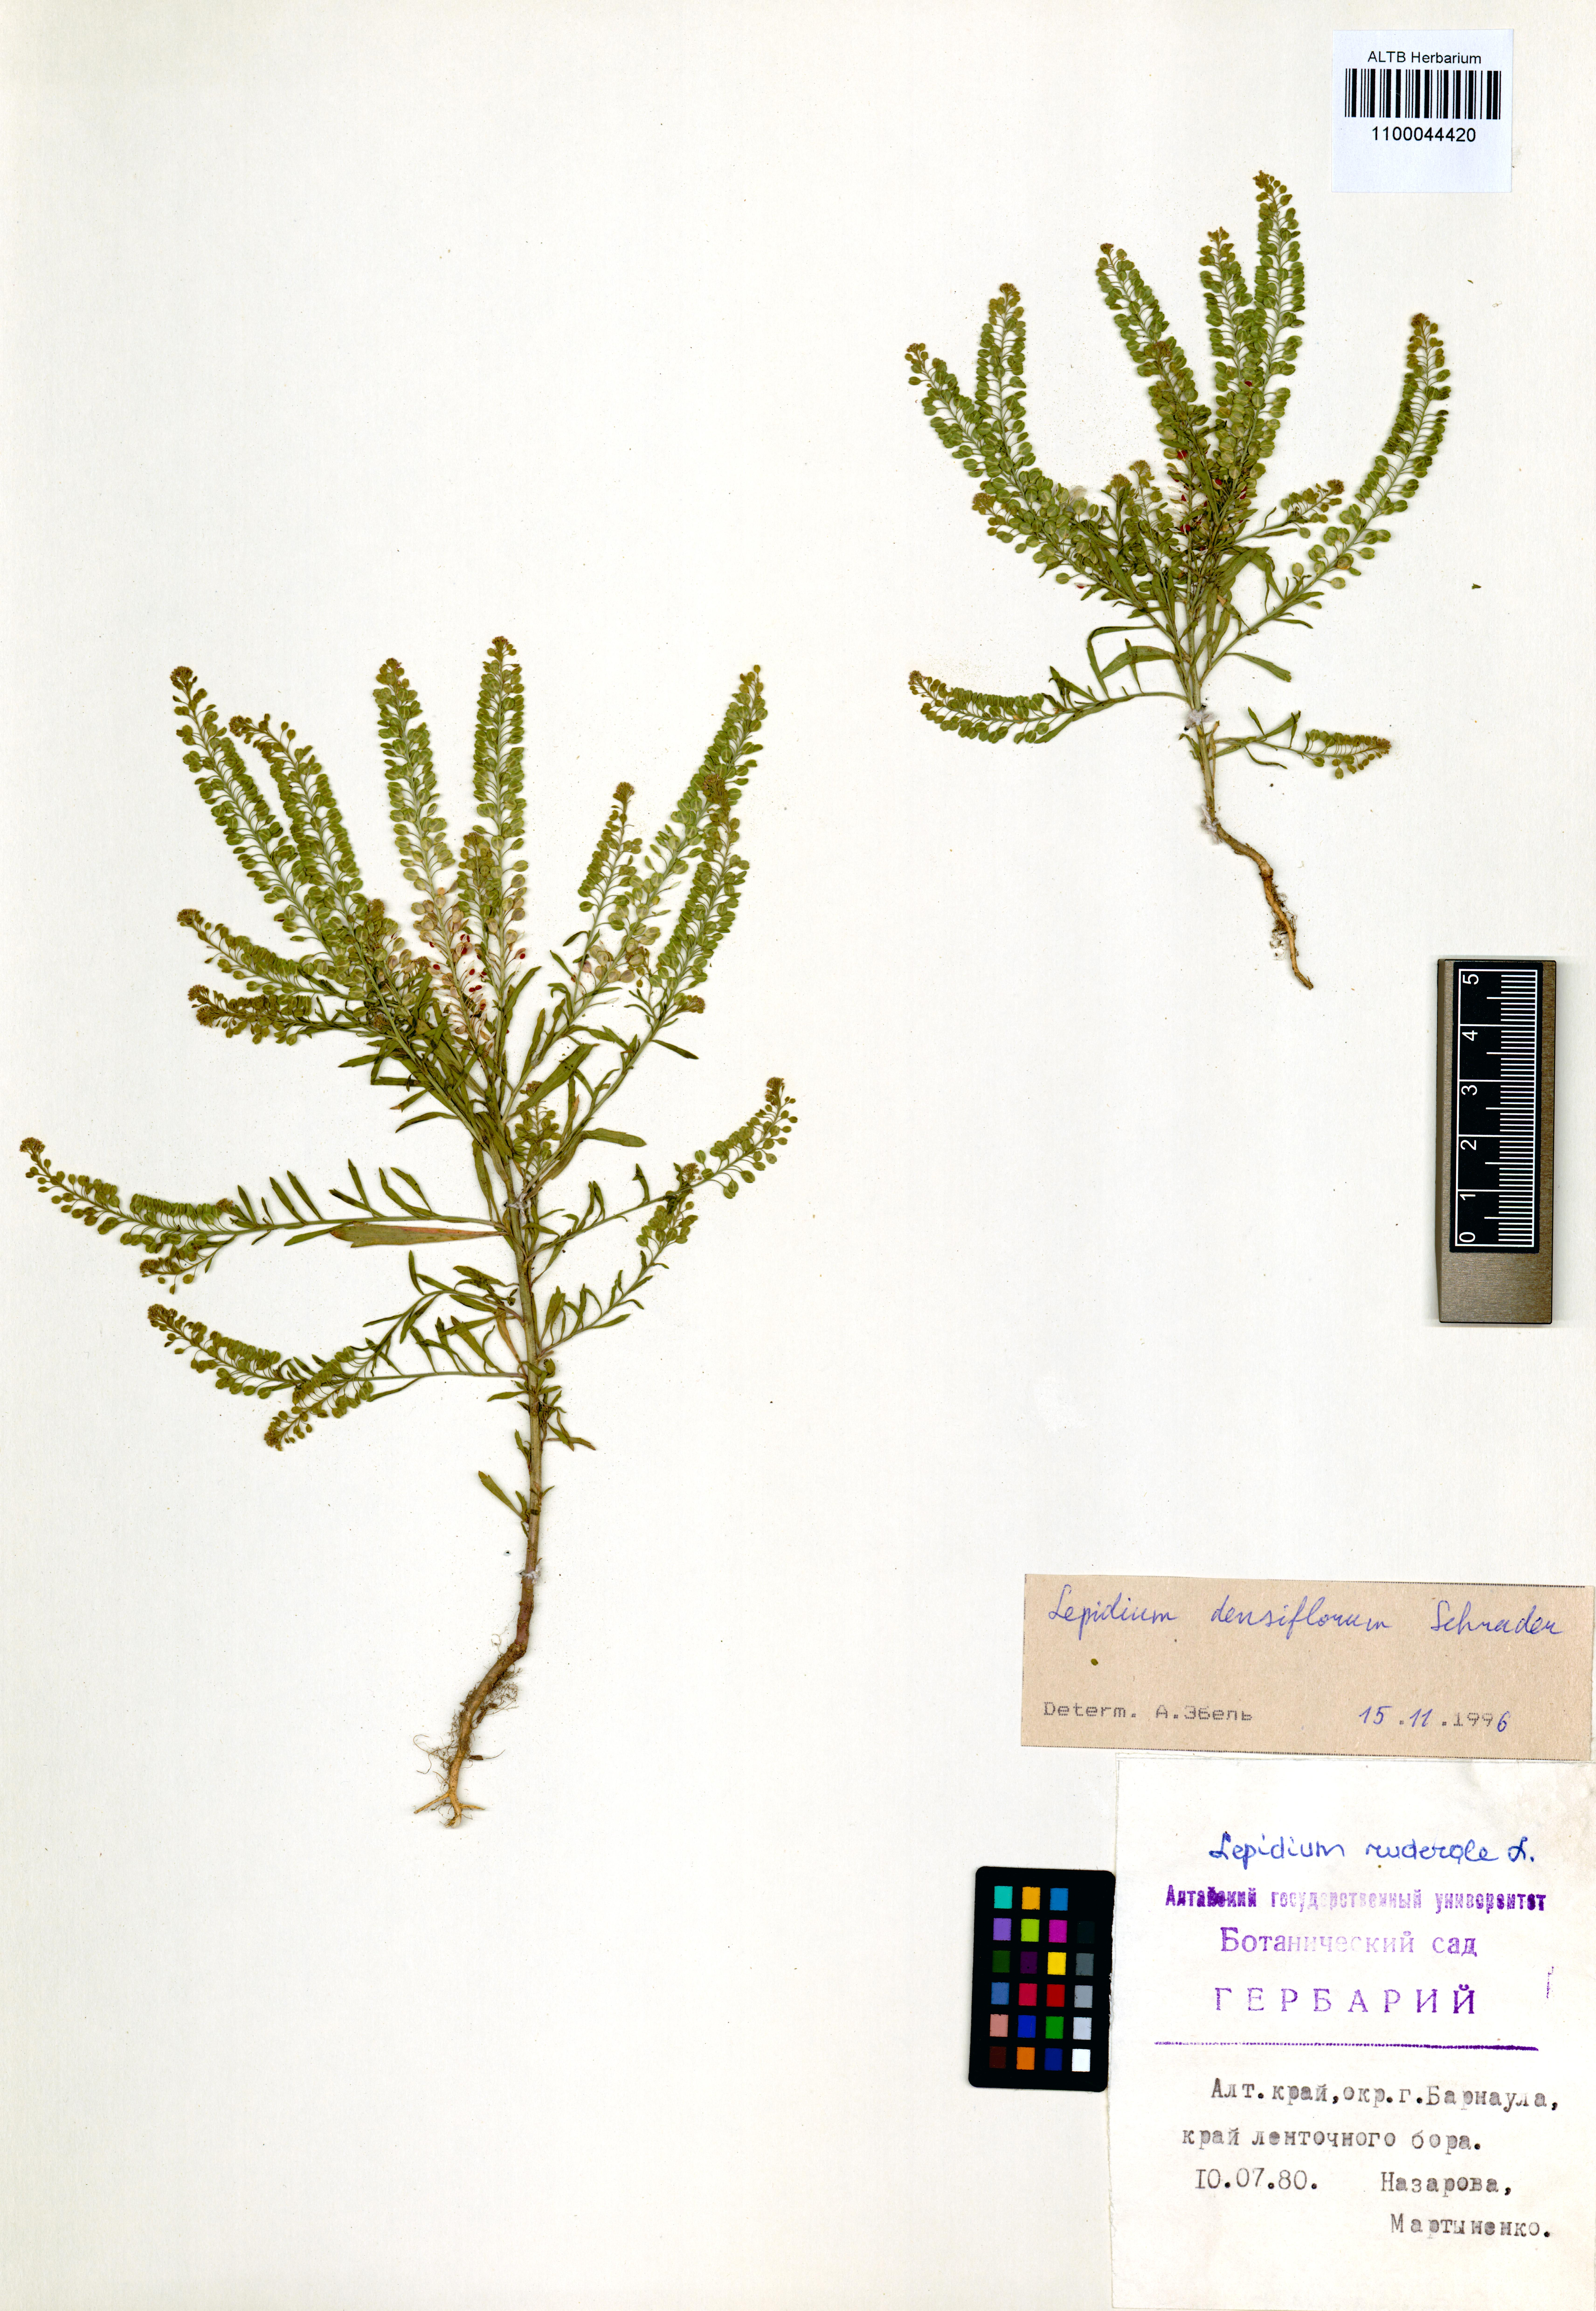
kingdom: Plantae
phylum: Tracheophyta
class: Magnoliopsida
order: Brassicales
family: Brassicaceae
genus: Lepidium
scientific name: Lepidium densiflorum
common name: Miner's pepperwort
